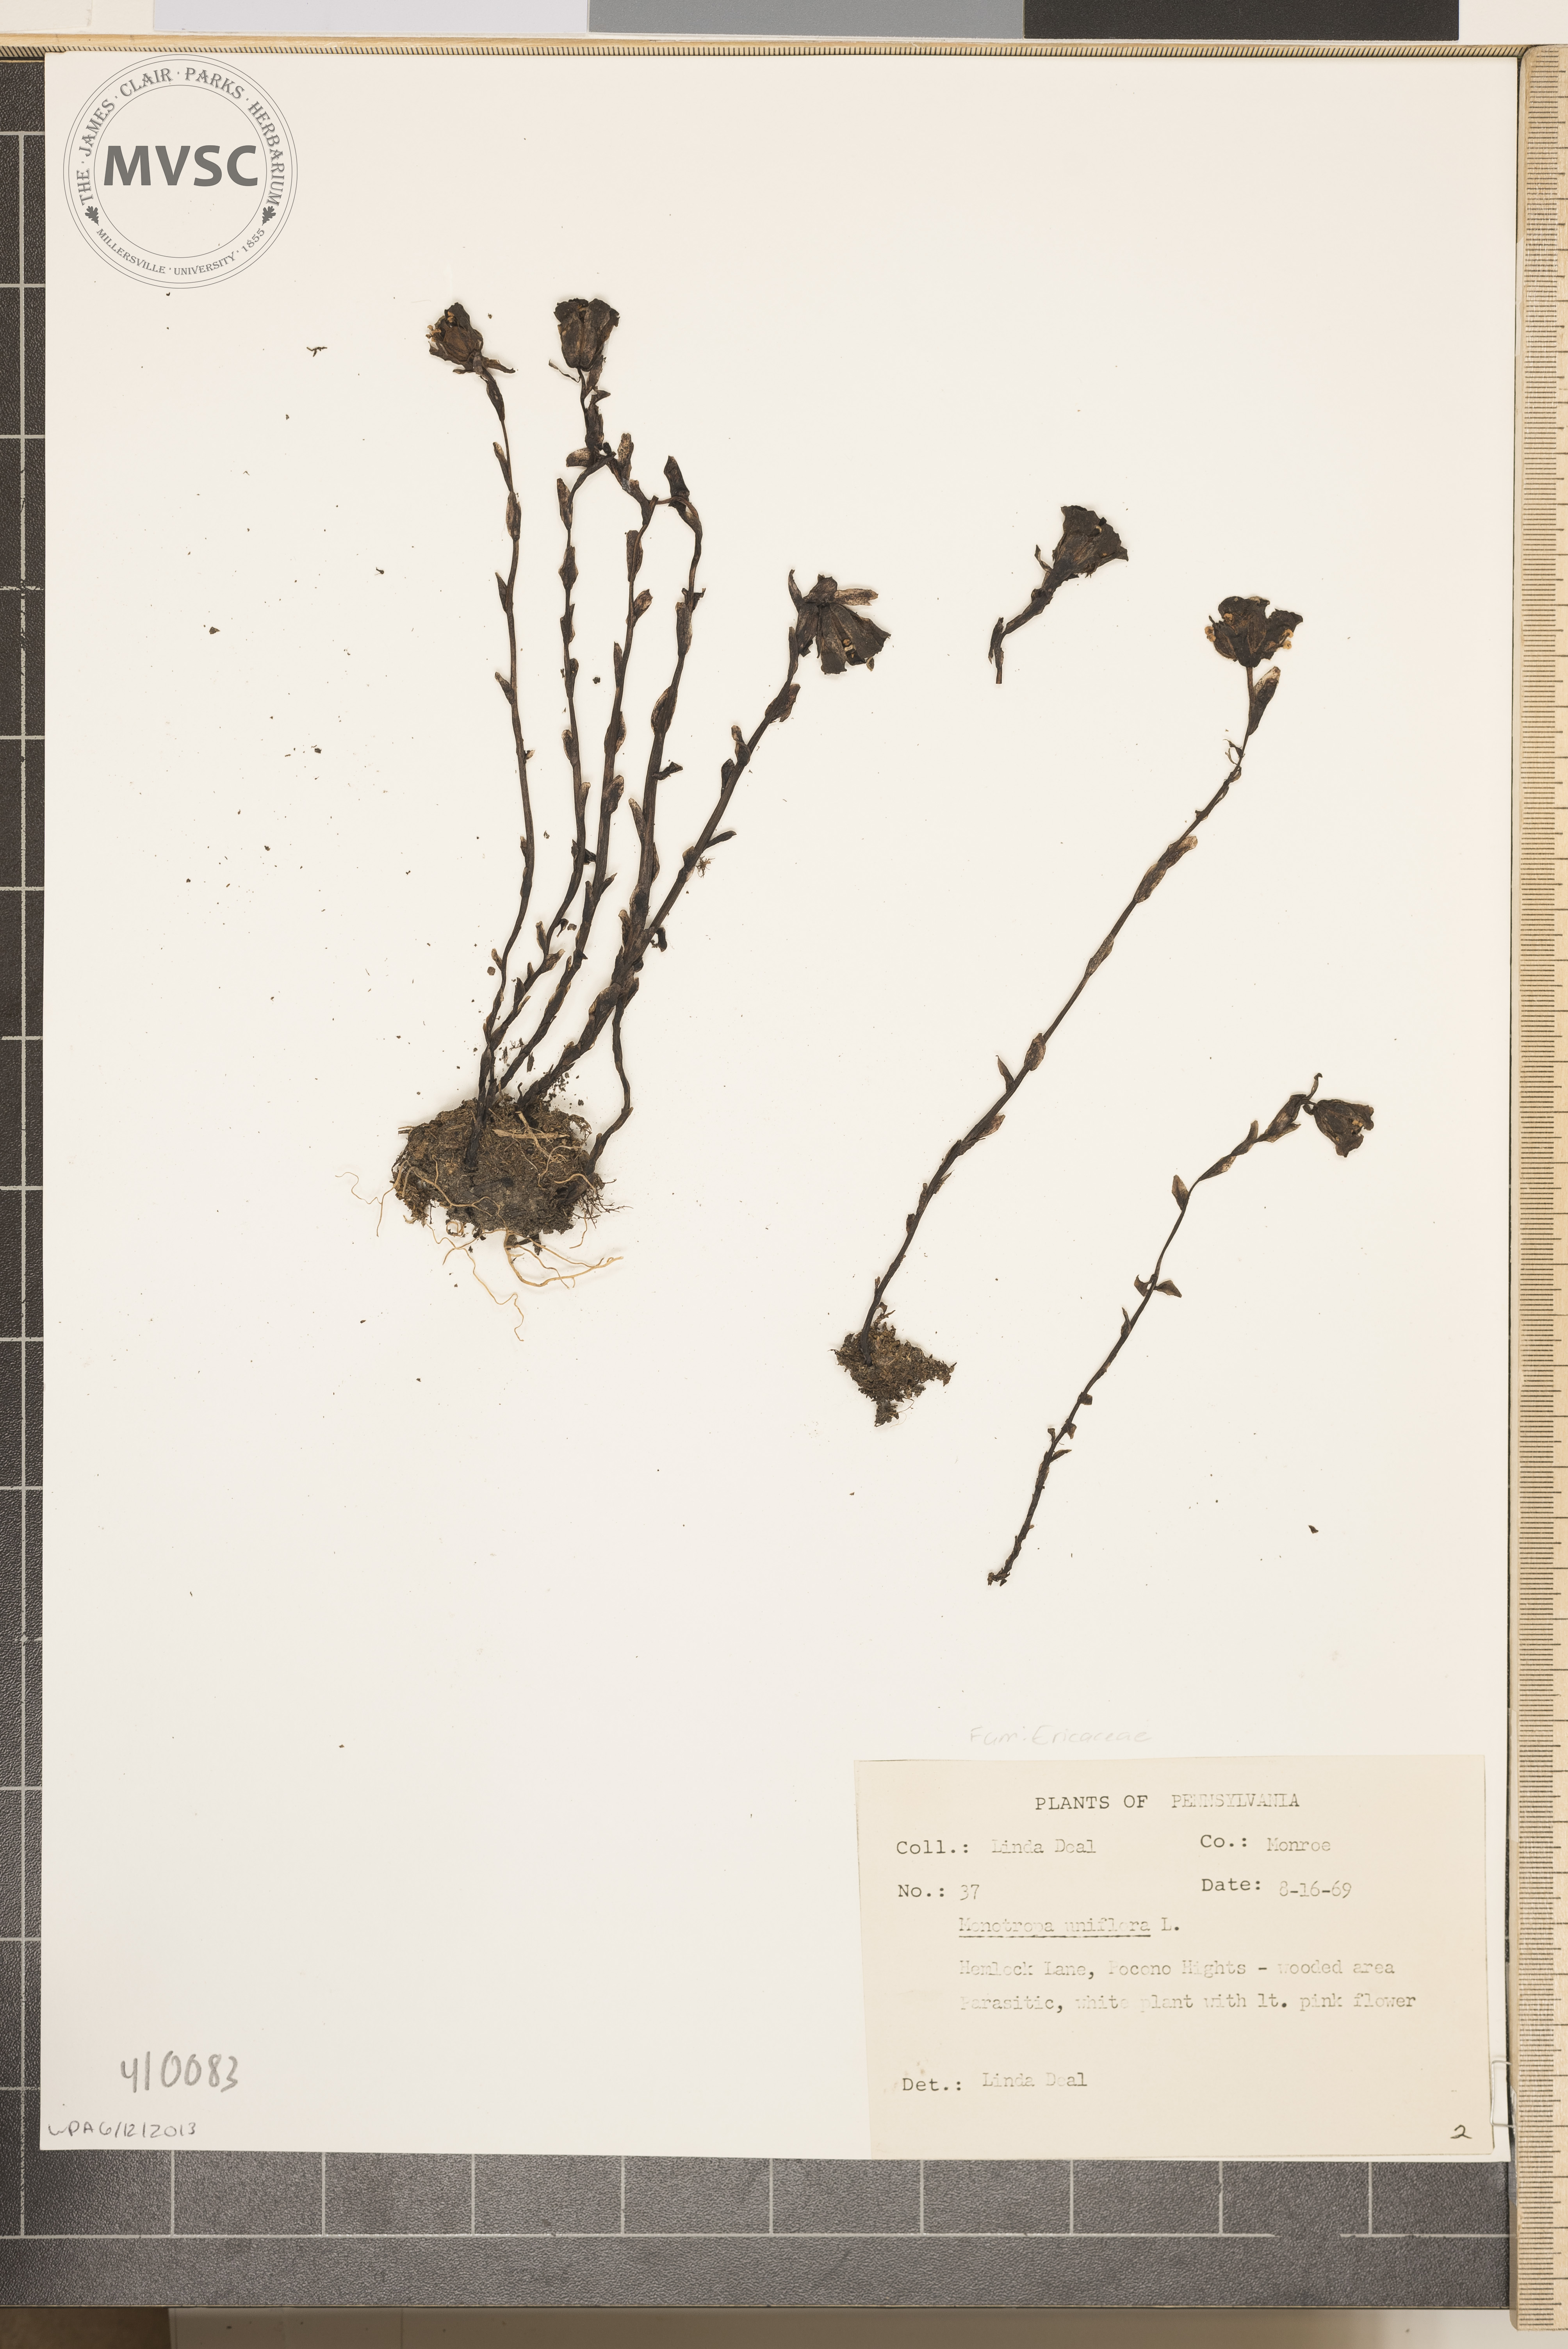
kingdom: Plantae
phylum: Tracheophyta
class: Magnoliopsida
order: Ericales
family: Ericaceae
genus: Monotropa
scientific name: Monotropa uniflora
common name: Convulsion root
